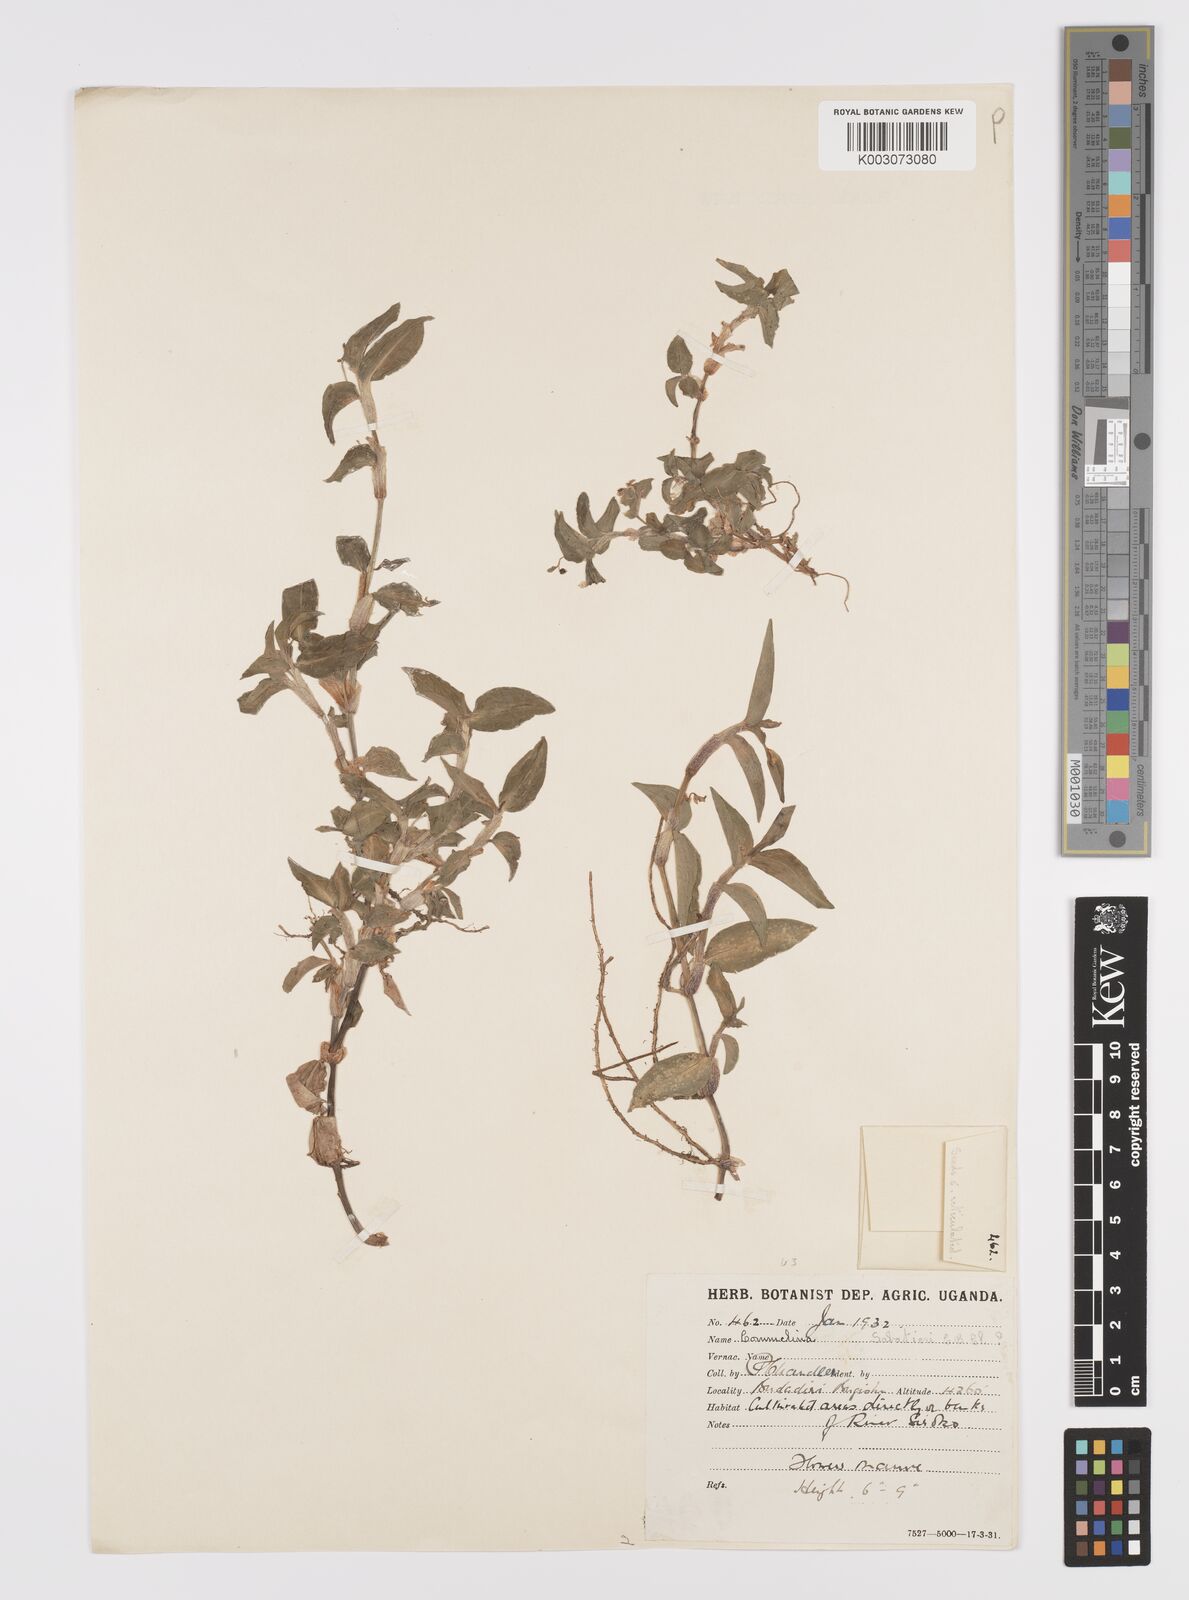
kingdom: Plantae
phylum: Tracheophyta
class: Liliopsida
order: Commelinales
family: Commelinaceae
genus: Commelina
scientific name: Commelina diffusa
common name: Climbing dayflower
